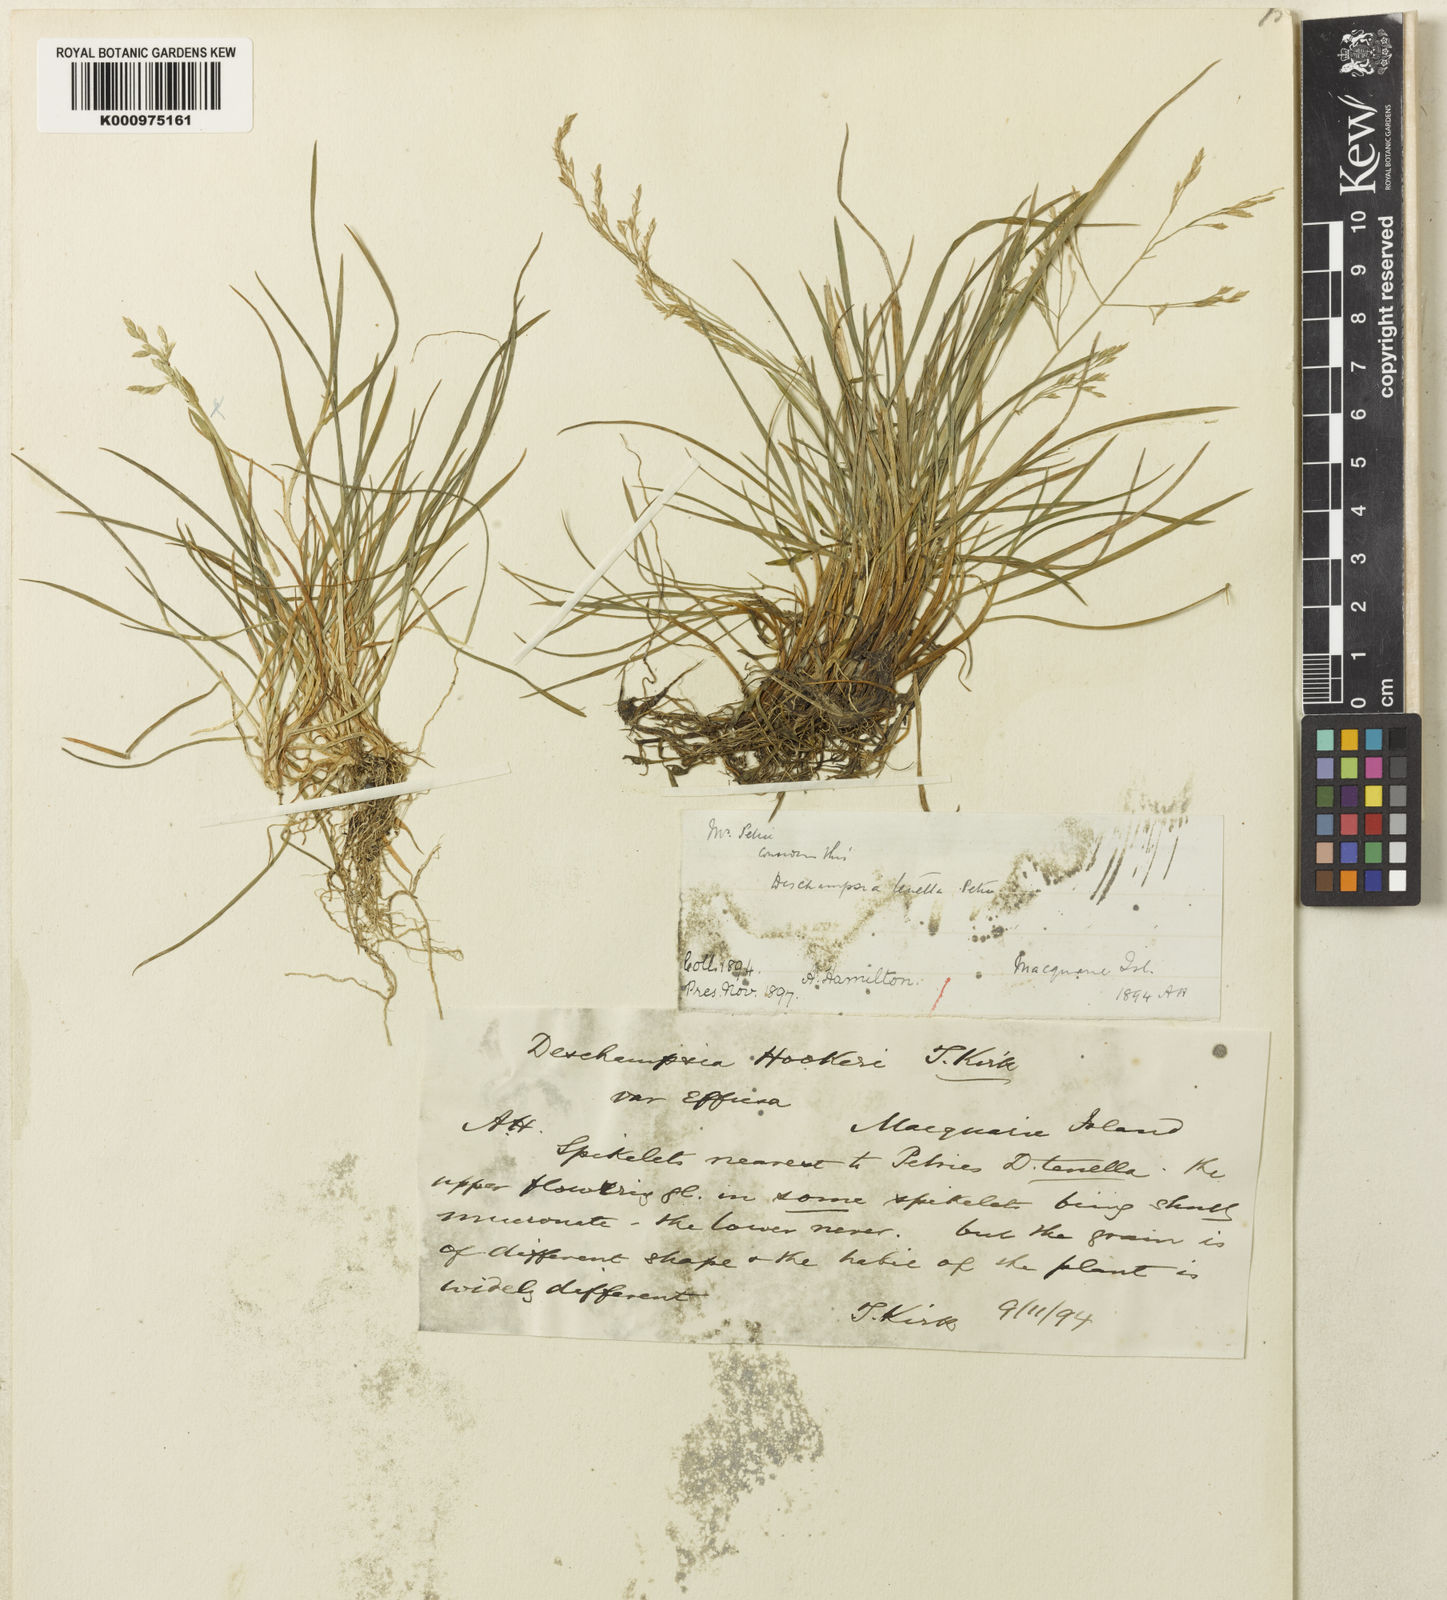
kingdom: Plantae
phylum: Tracheophyta
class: Liliopsida
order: Poales
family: Poaceae
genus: Deschampsia
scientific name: Deschampsia cespitosa
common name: Tufted hair-grass
